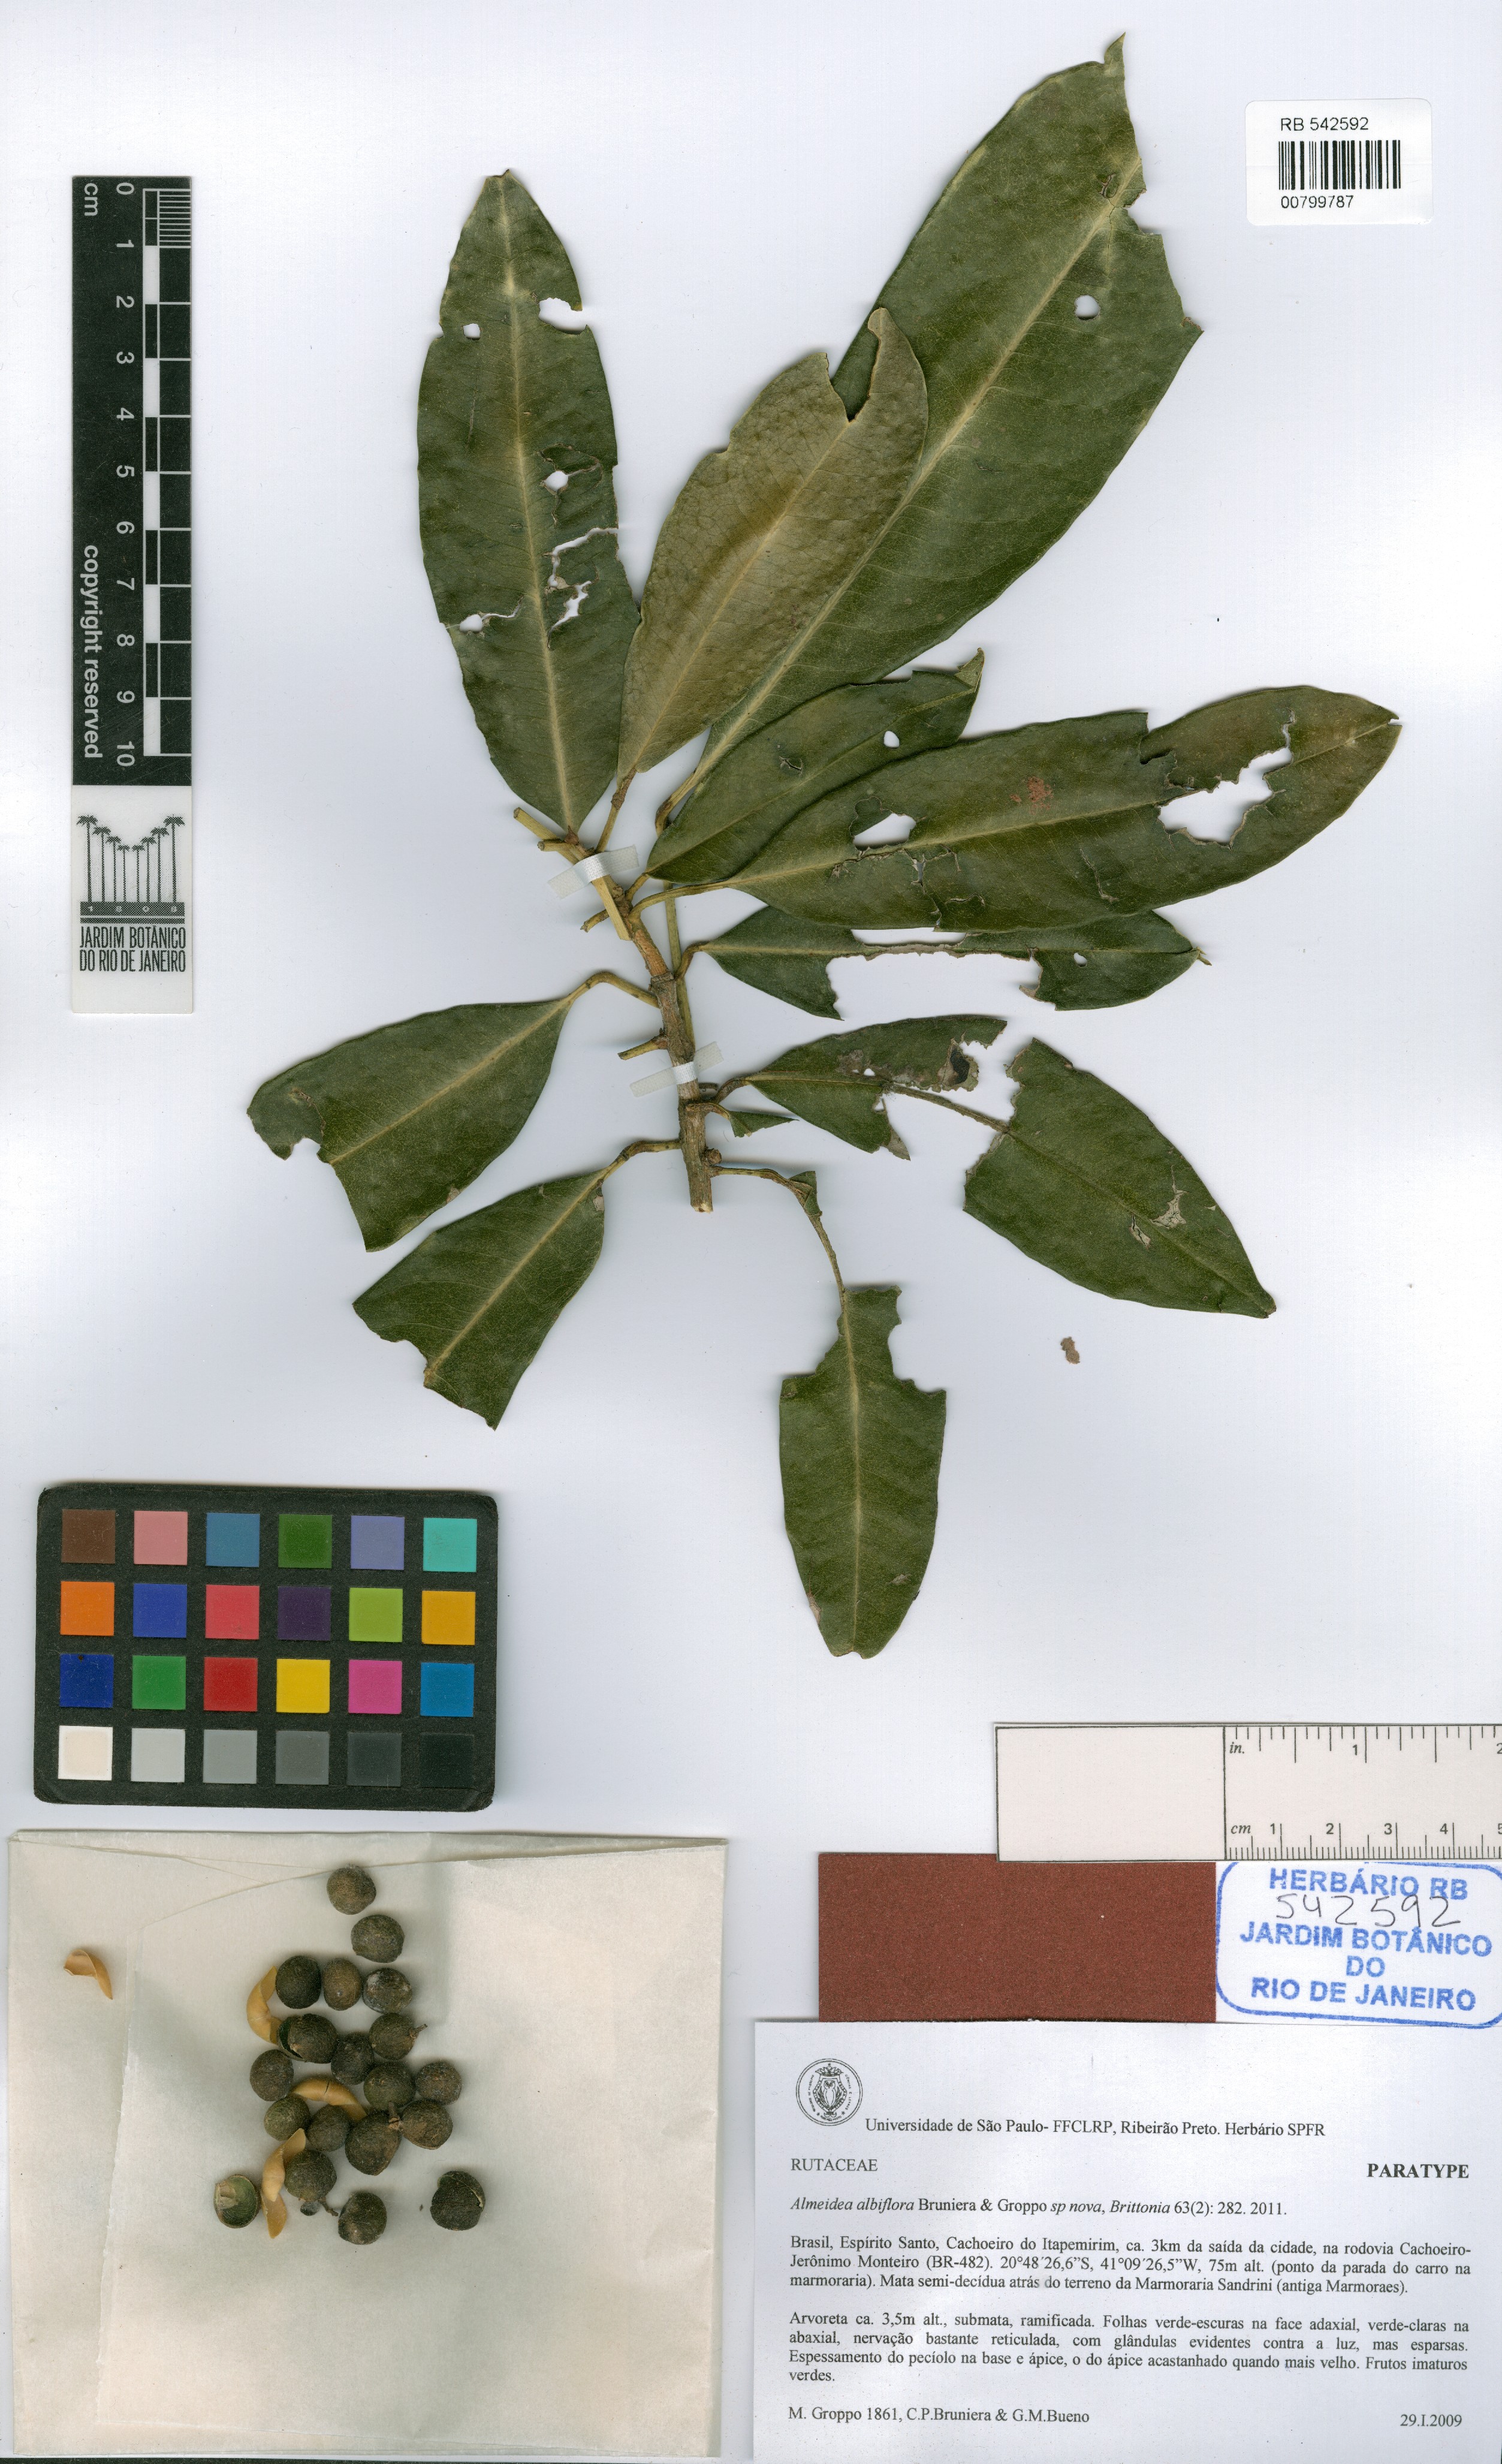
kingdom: Plantae
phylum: Tracheophyta
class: Magnoliopsida
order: Sapindales
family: Rutaceae
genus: Conchocarpus
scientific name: Conchocarpus albiflorus
